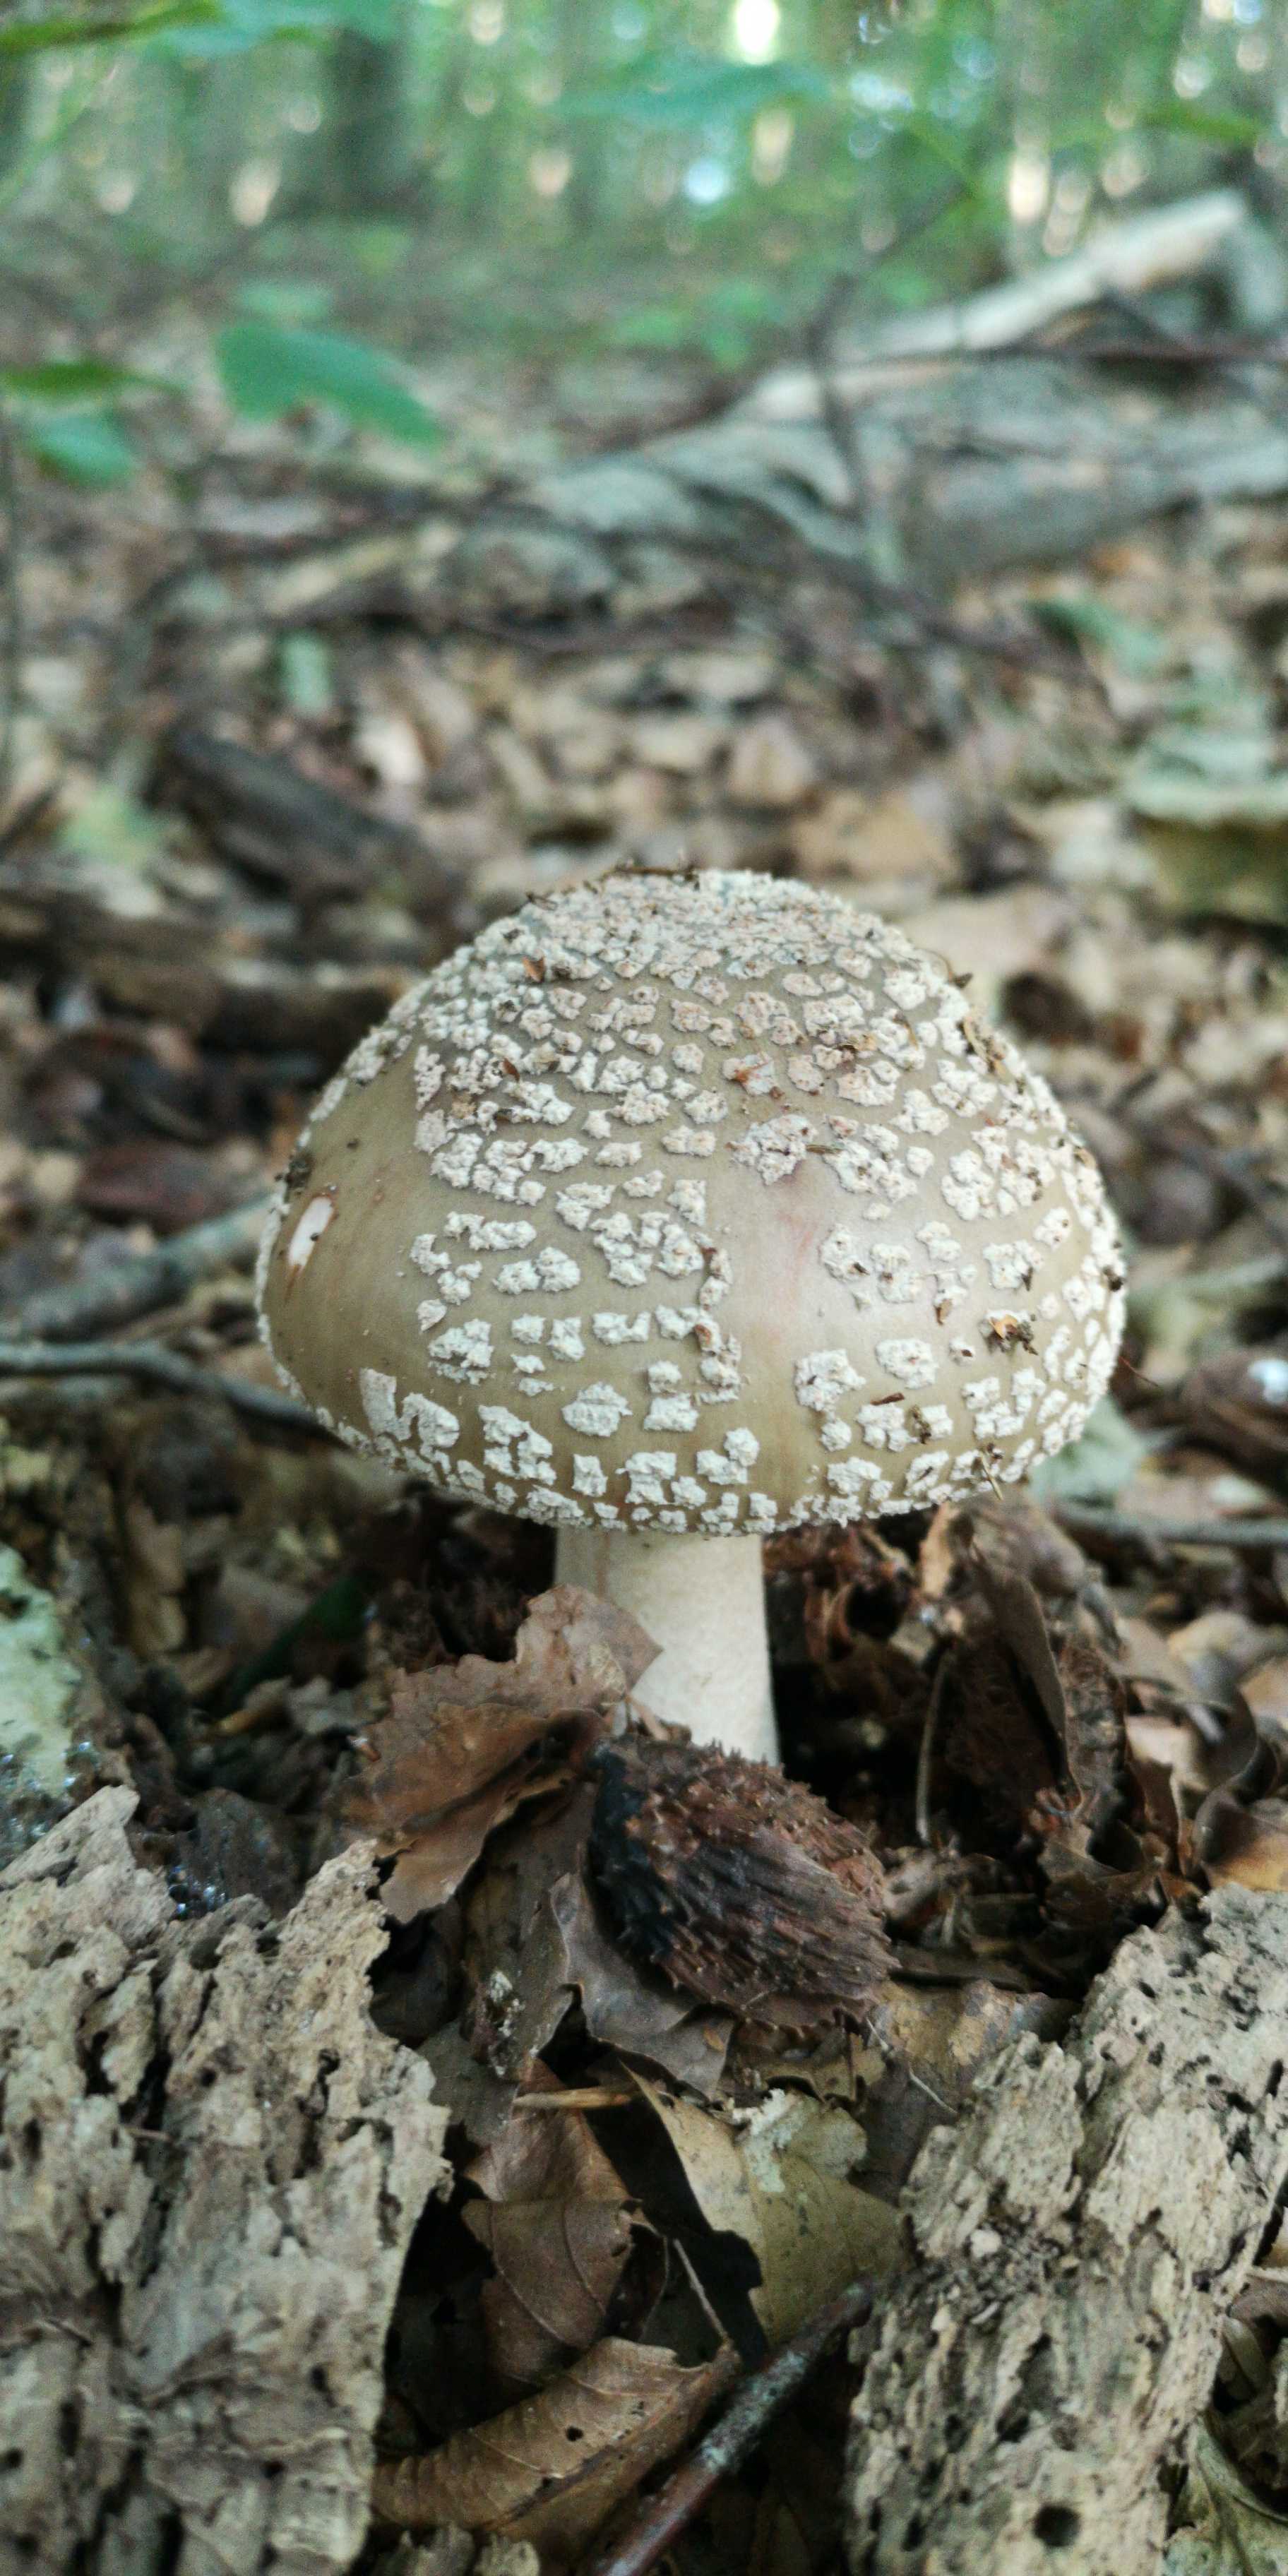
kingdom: Fungi
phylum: Basidiomycota
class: Agaricomycetes
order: Agaricales
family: Amanitaceae
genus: Amanita
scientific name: Amanita rubescens
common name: rødmende fluesvamp
